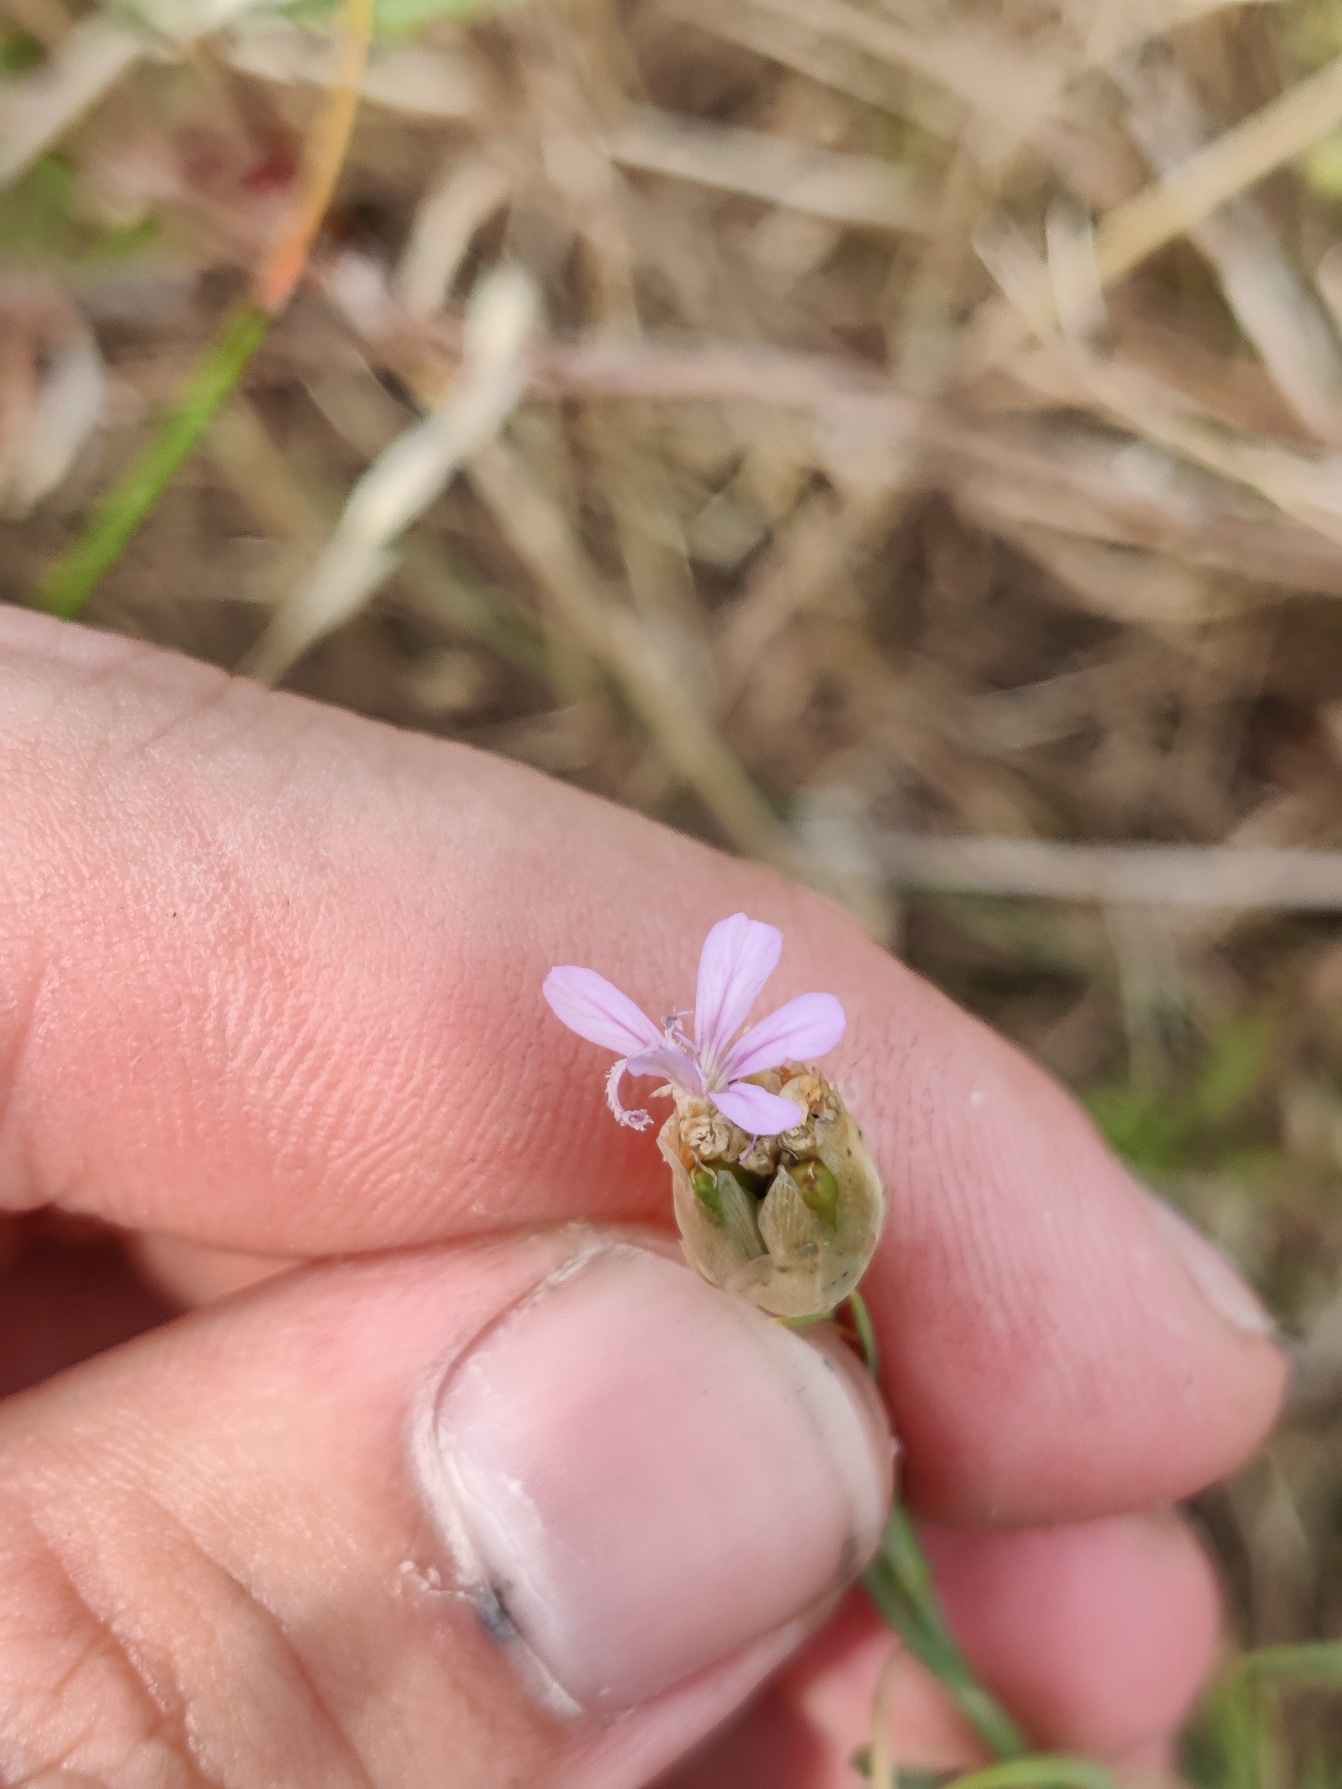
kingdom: Plantae
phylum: Tracheophyta
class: Magnoliopsida
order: Caryophyllales
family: Caryophyllaceae
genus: Petrorhagia
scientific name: Petrorhagia prolifera
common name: Knopnellike
